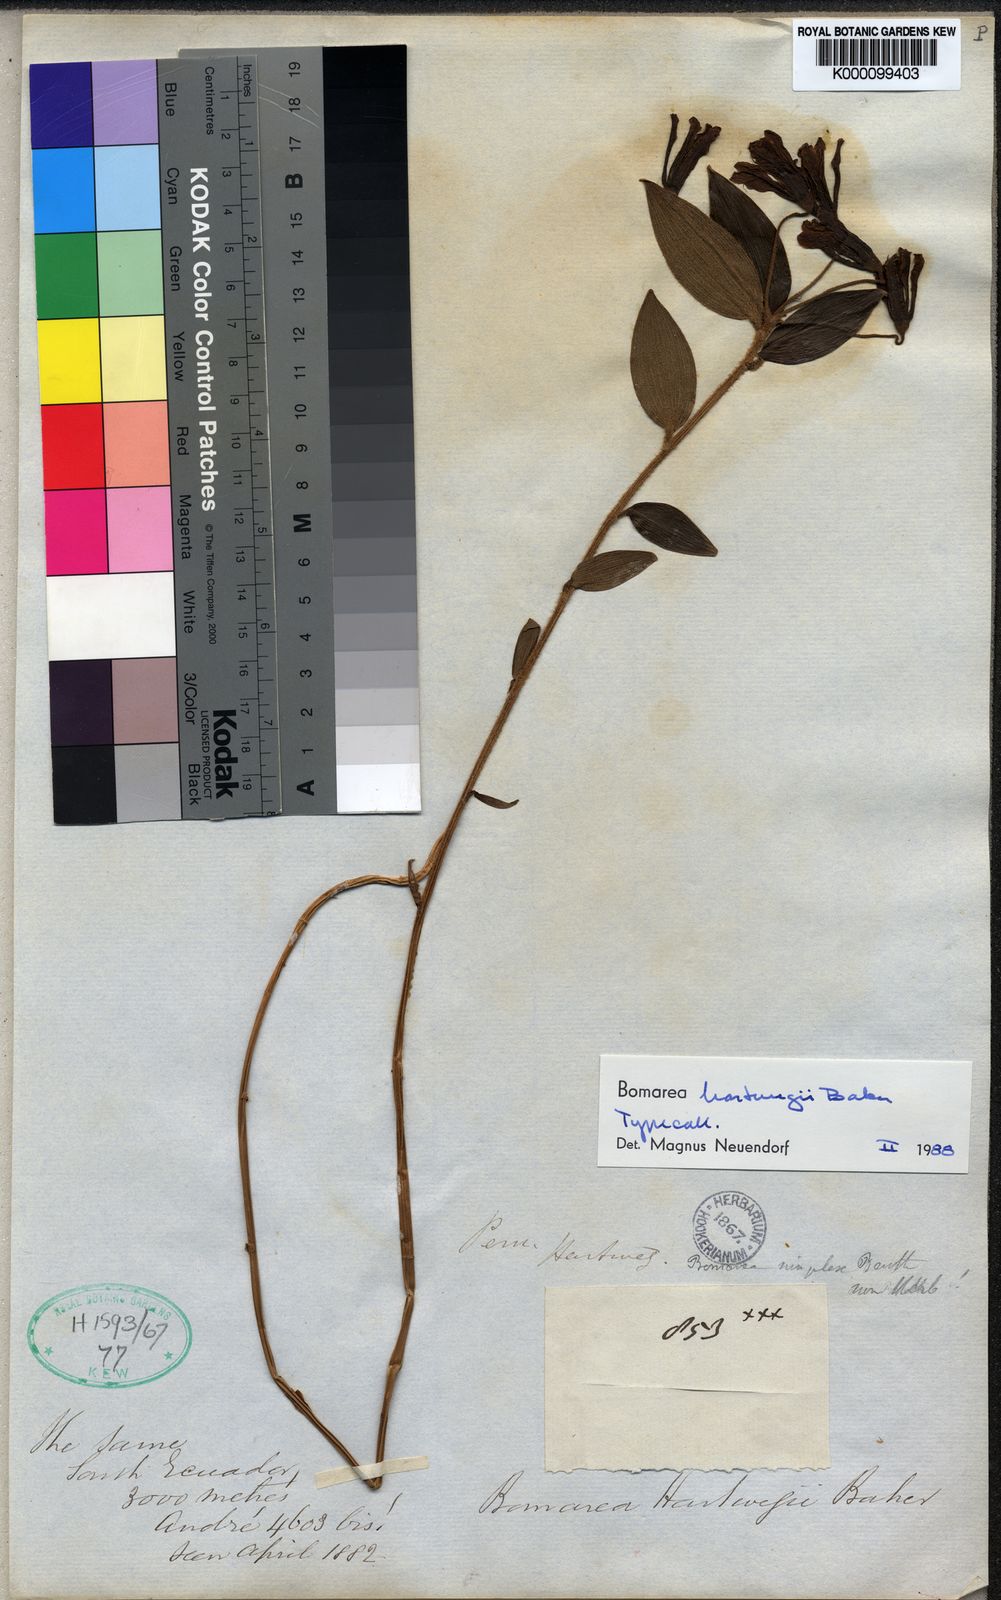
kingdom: Plantae
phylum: Tracheophyta
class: Liliopsida
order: Liliales
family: Alstroemeriaceae
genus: Bomarea
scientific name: Bomarea hartwegii
